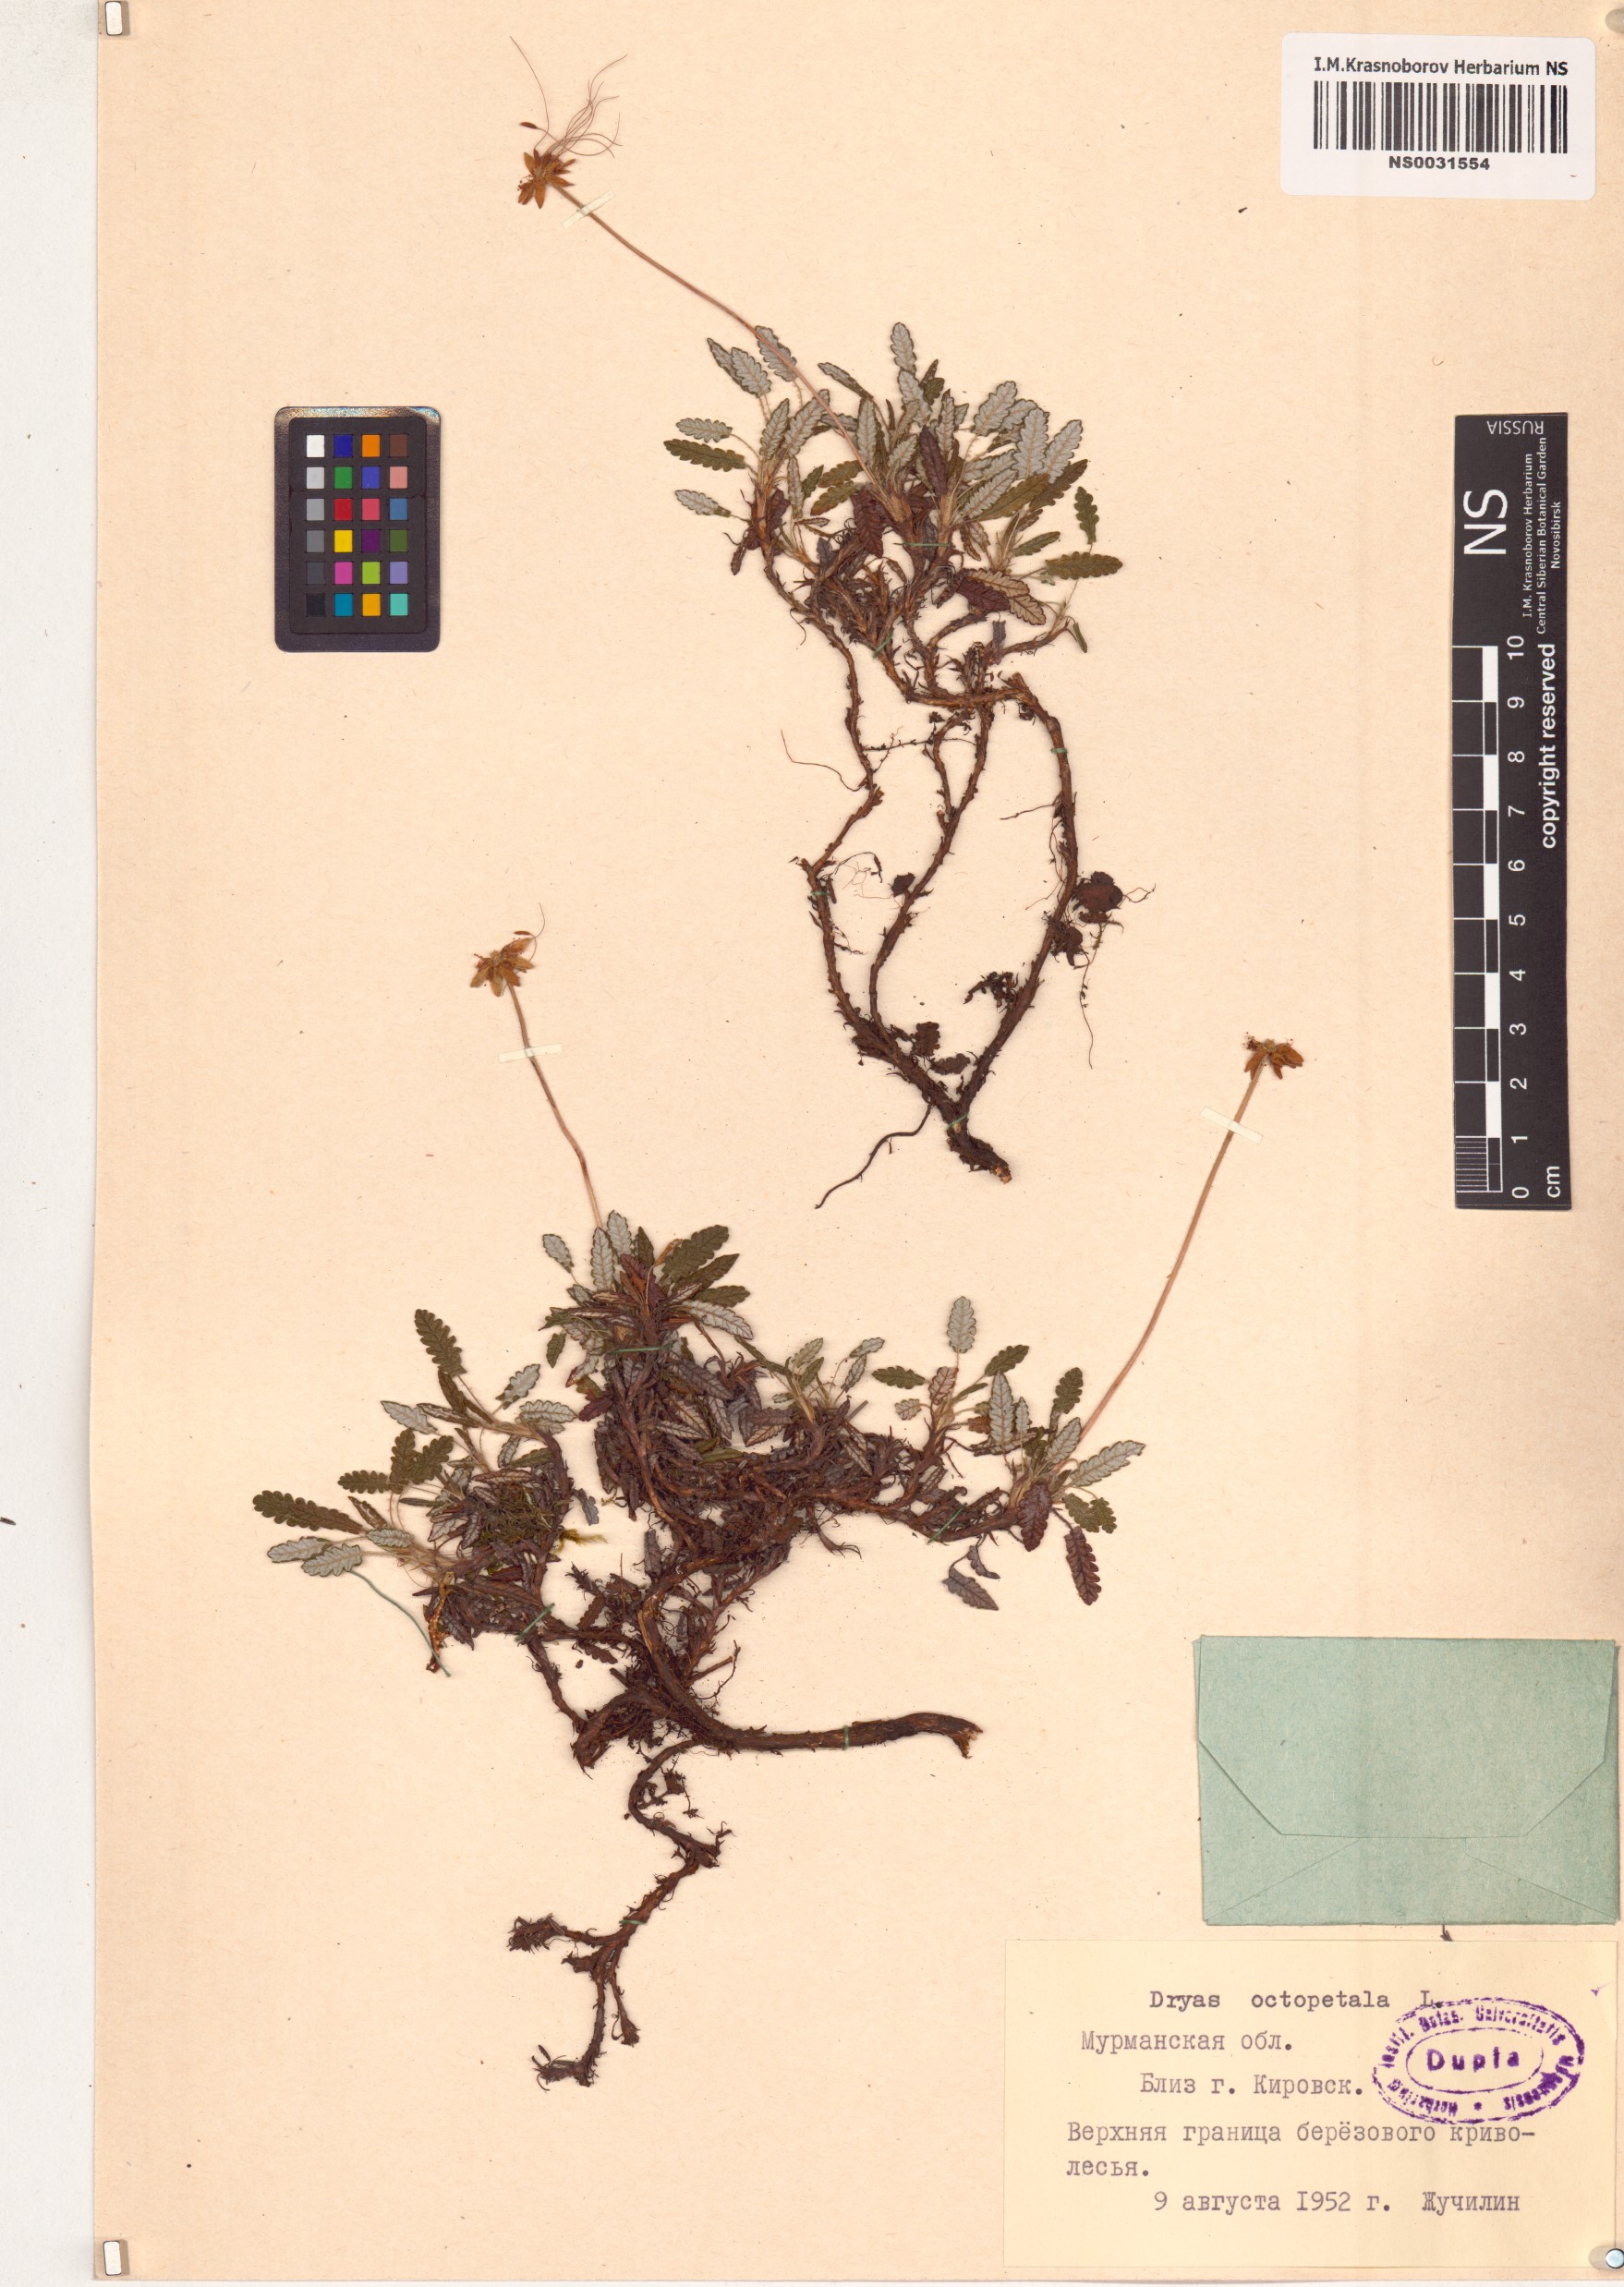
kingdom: Plantae
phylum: Tracheophyta
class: Magnoliopsida
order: Rosales
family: Rosaceae
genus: Dryas
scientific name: Dryas octopetala
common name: Eight-petal mountain-avens
